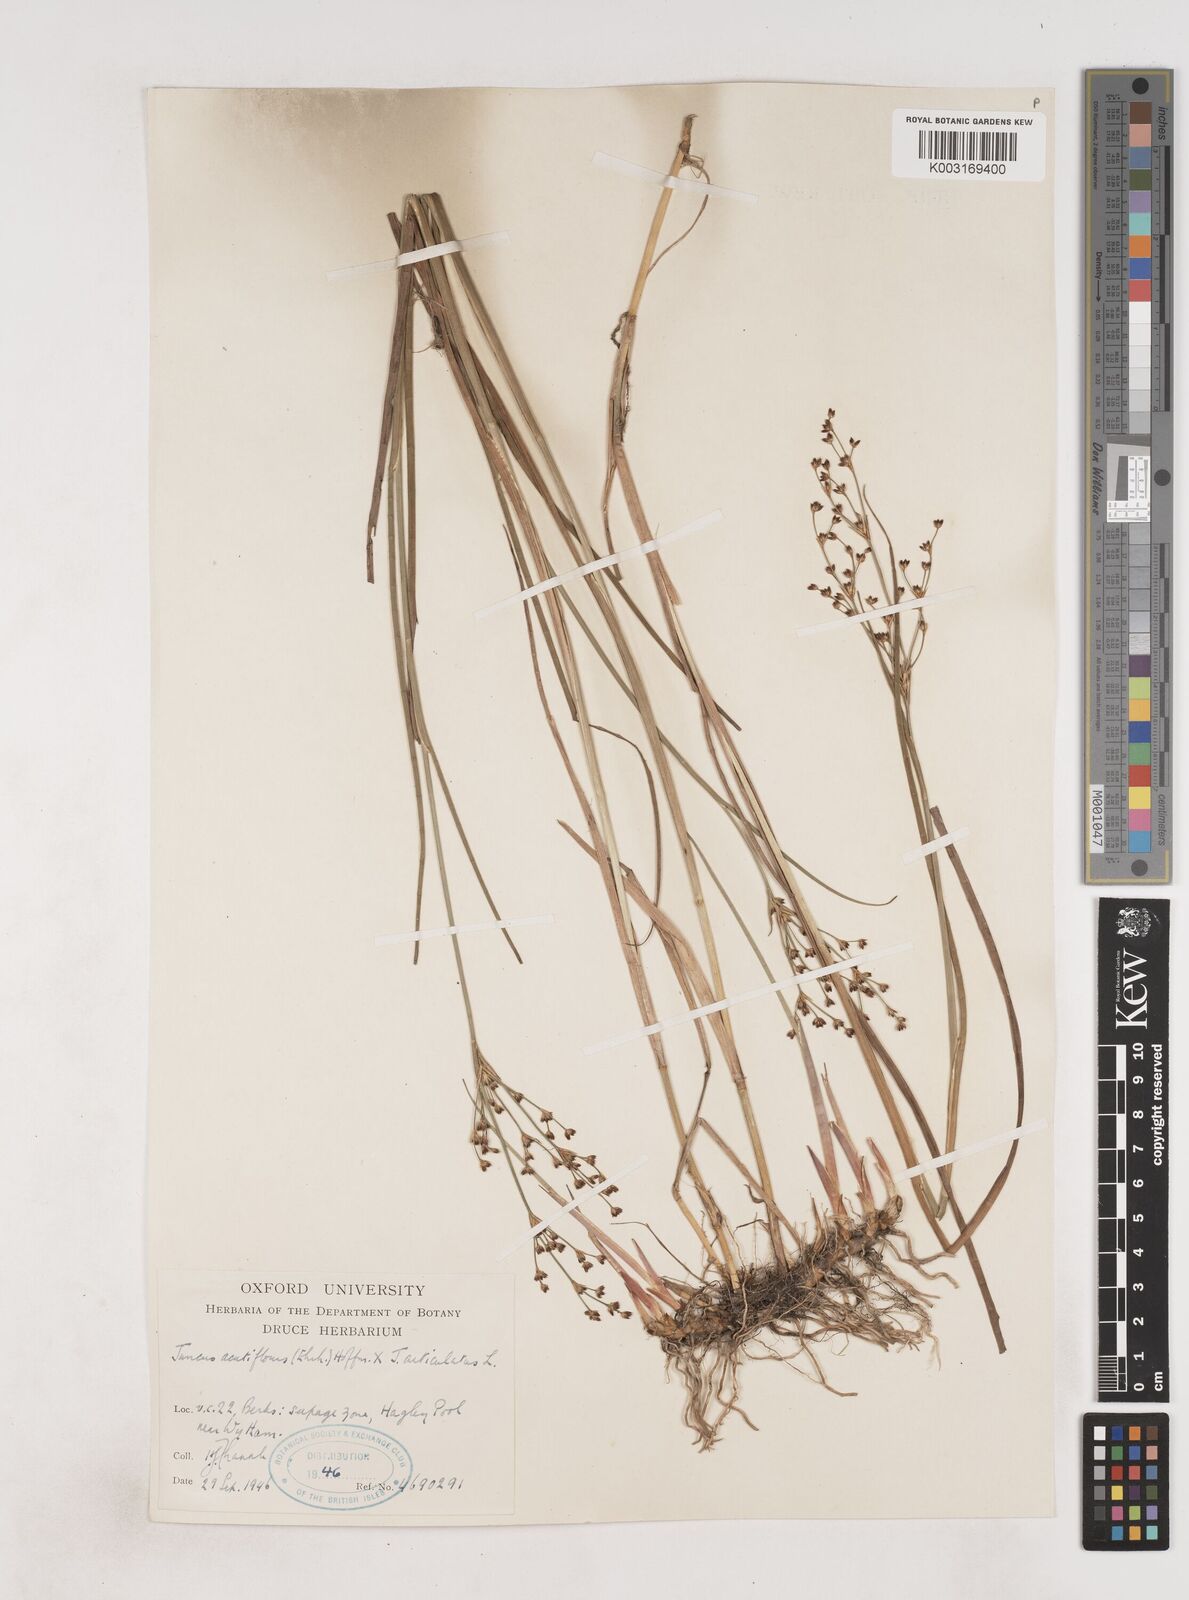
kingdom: Plantae
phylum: Tracheophyta
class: Liliopsida
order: Poales
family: Juncaceae
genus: Juncus
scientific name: Juncus acutiflorus
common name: Sharp-flowered rush
